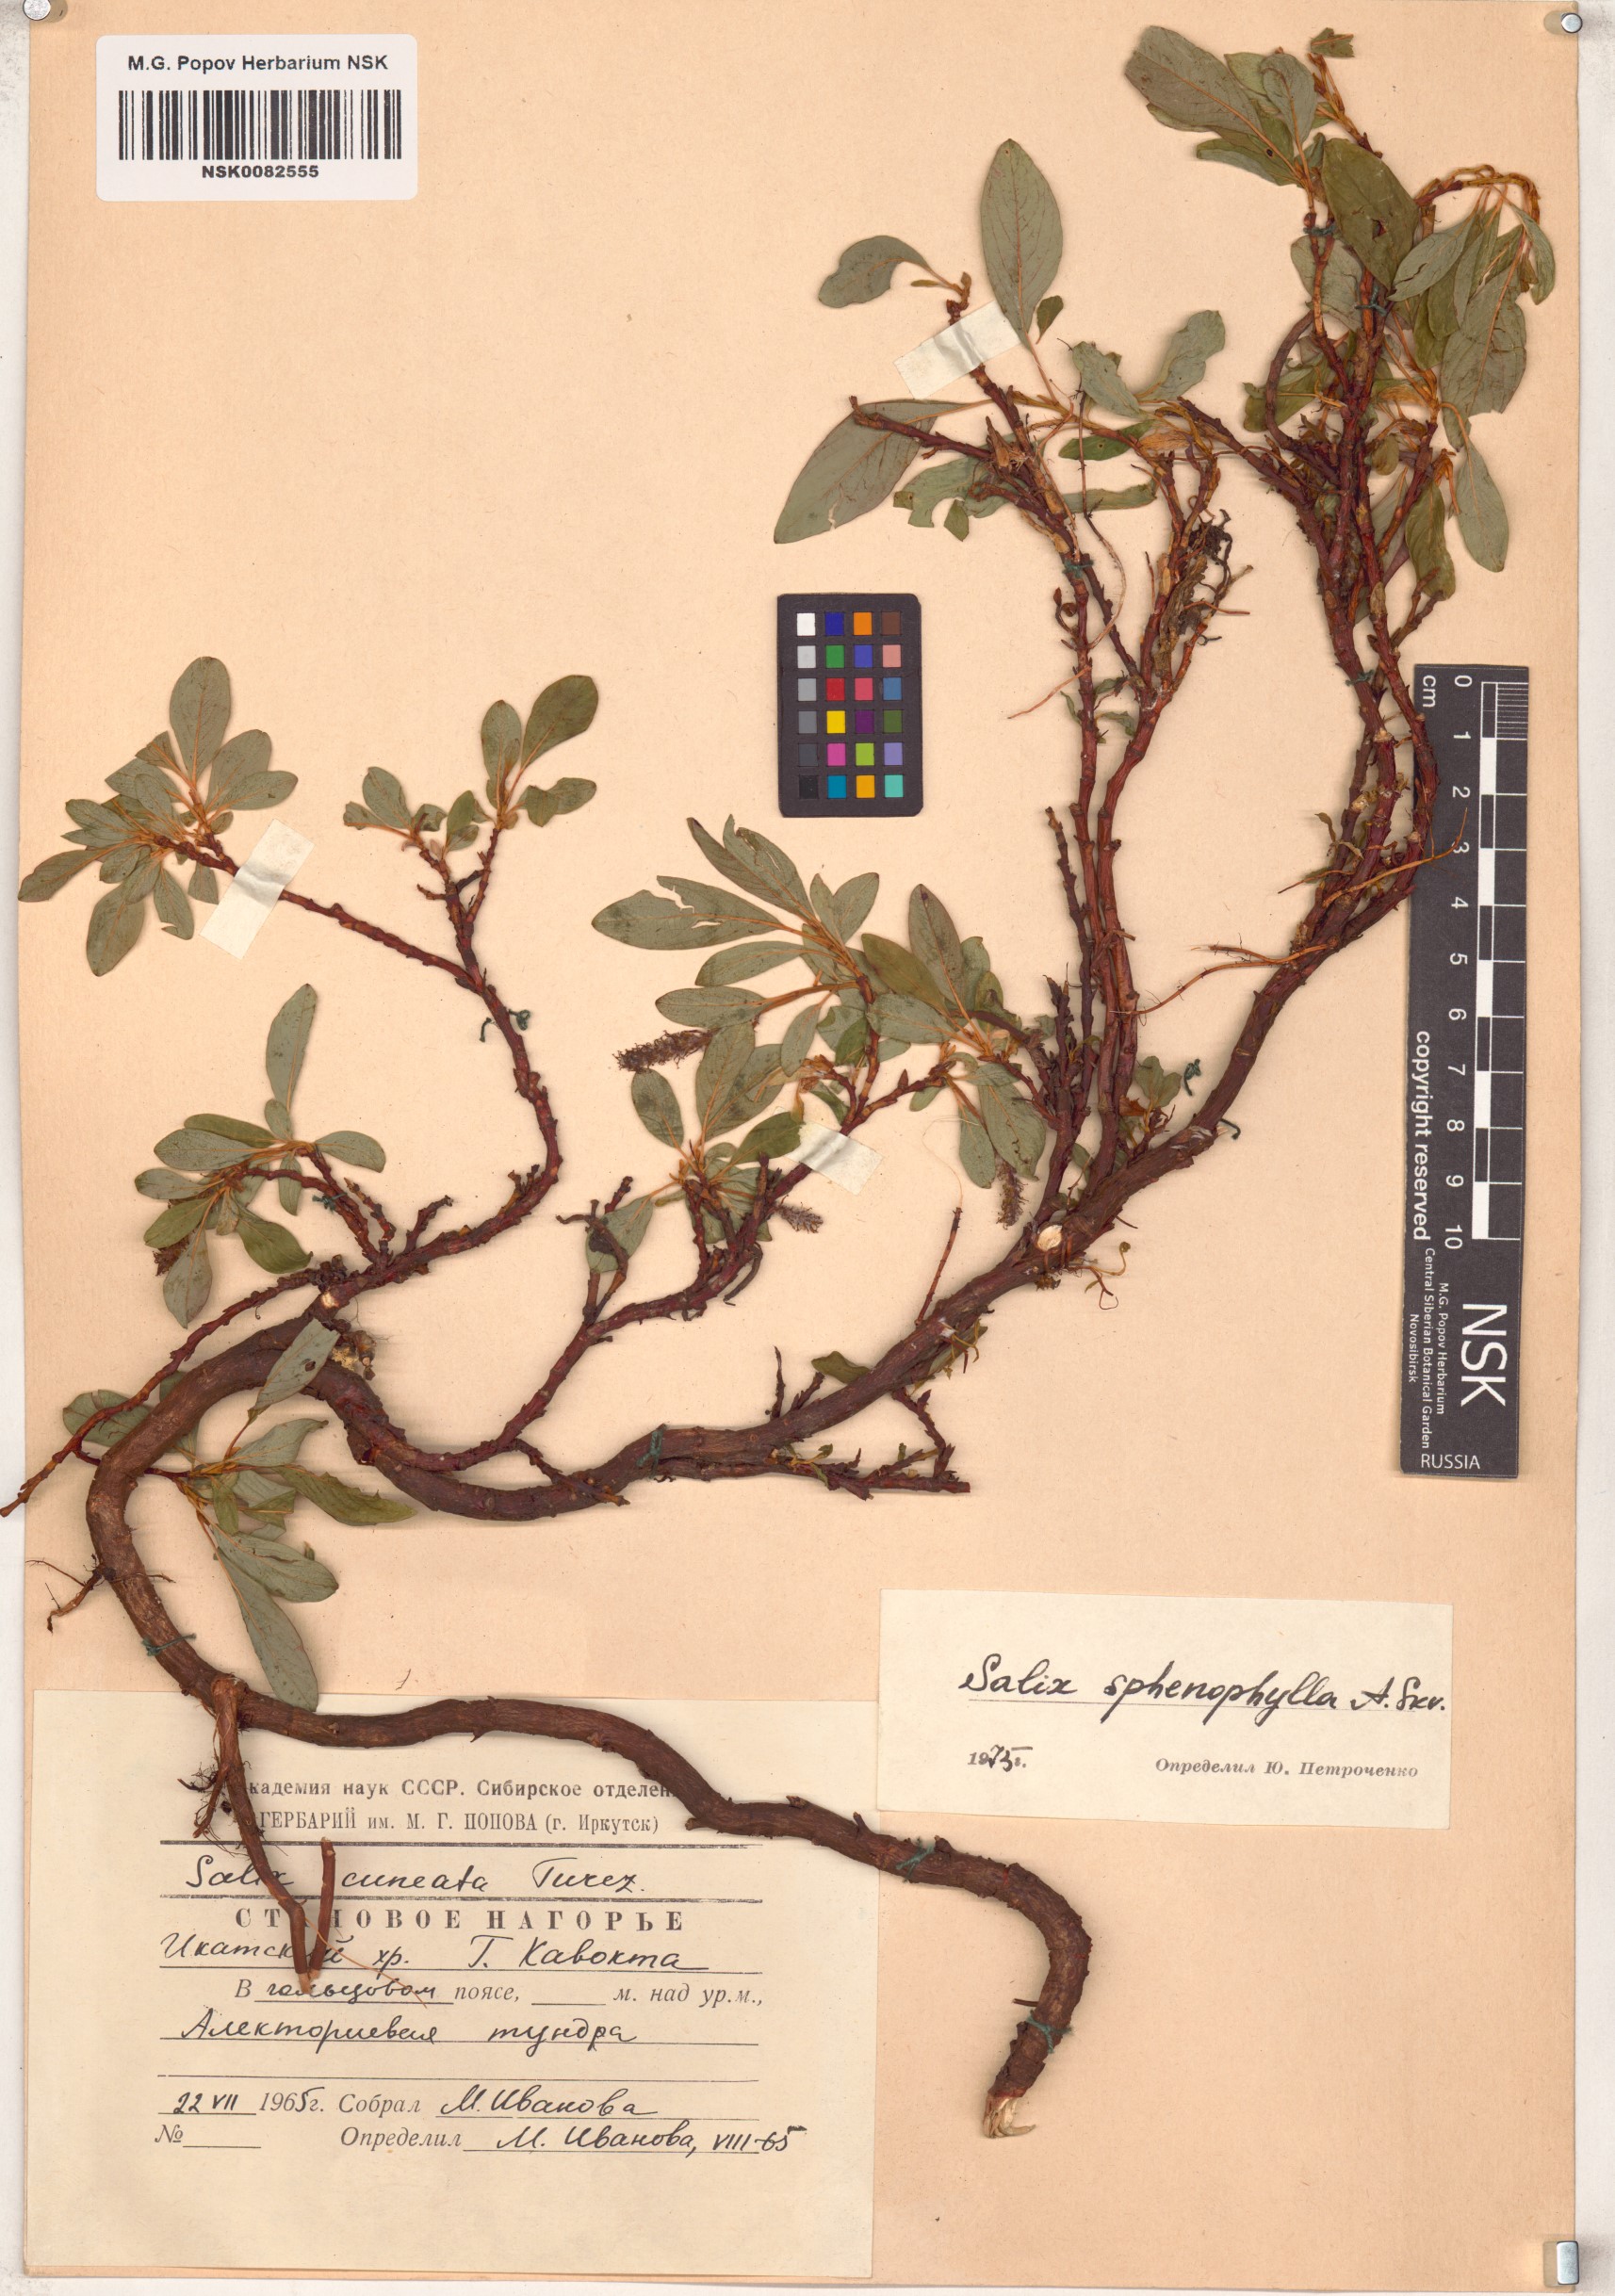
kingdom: Plantae
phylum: Tracheophyta
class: Magnoliopsida
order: Malpighiales
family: Salicaceae
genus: Salix
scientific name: Salix sphenophylla
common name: Wedge-leaved willow
